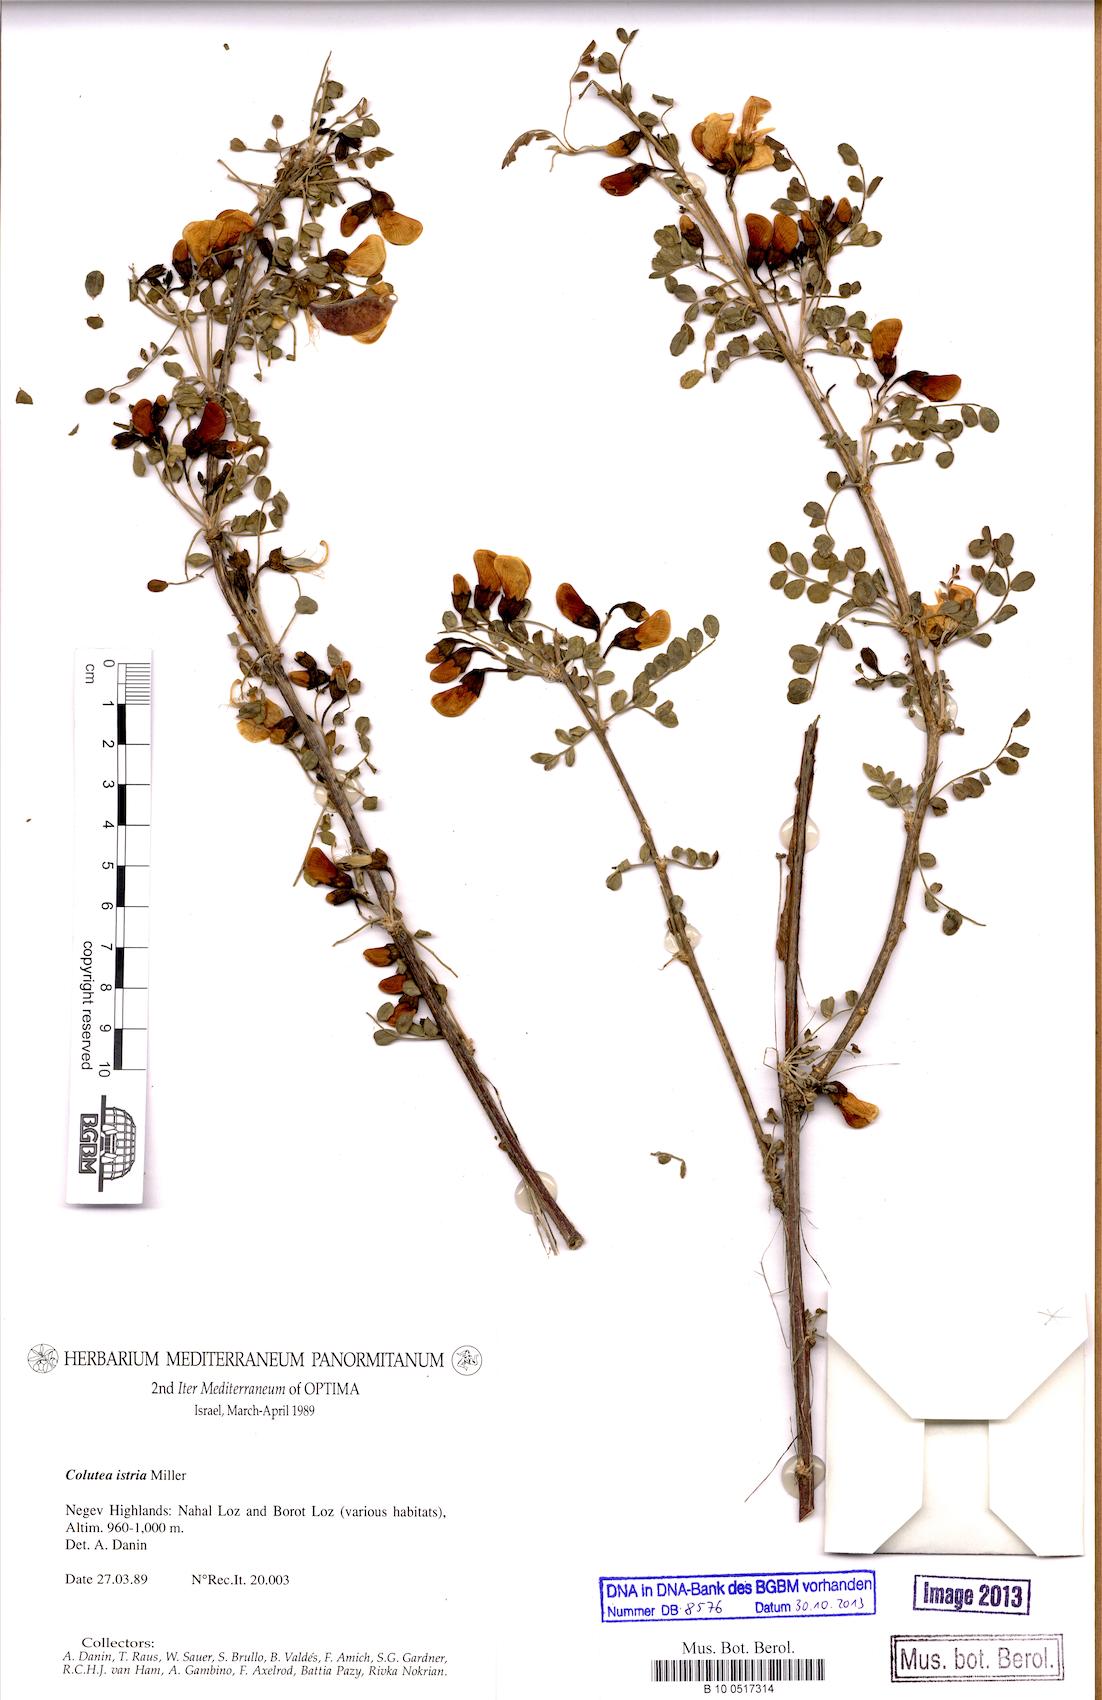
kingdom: Plantae
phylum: Tracheophyta
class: Magnoliopsida
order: Fabales
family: Fabaceae
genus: Colutea
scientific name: Colutea istria
